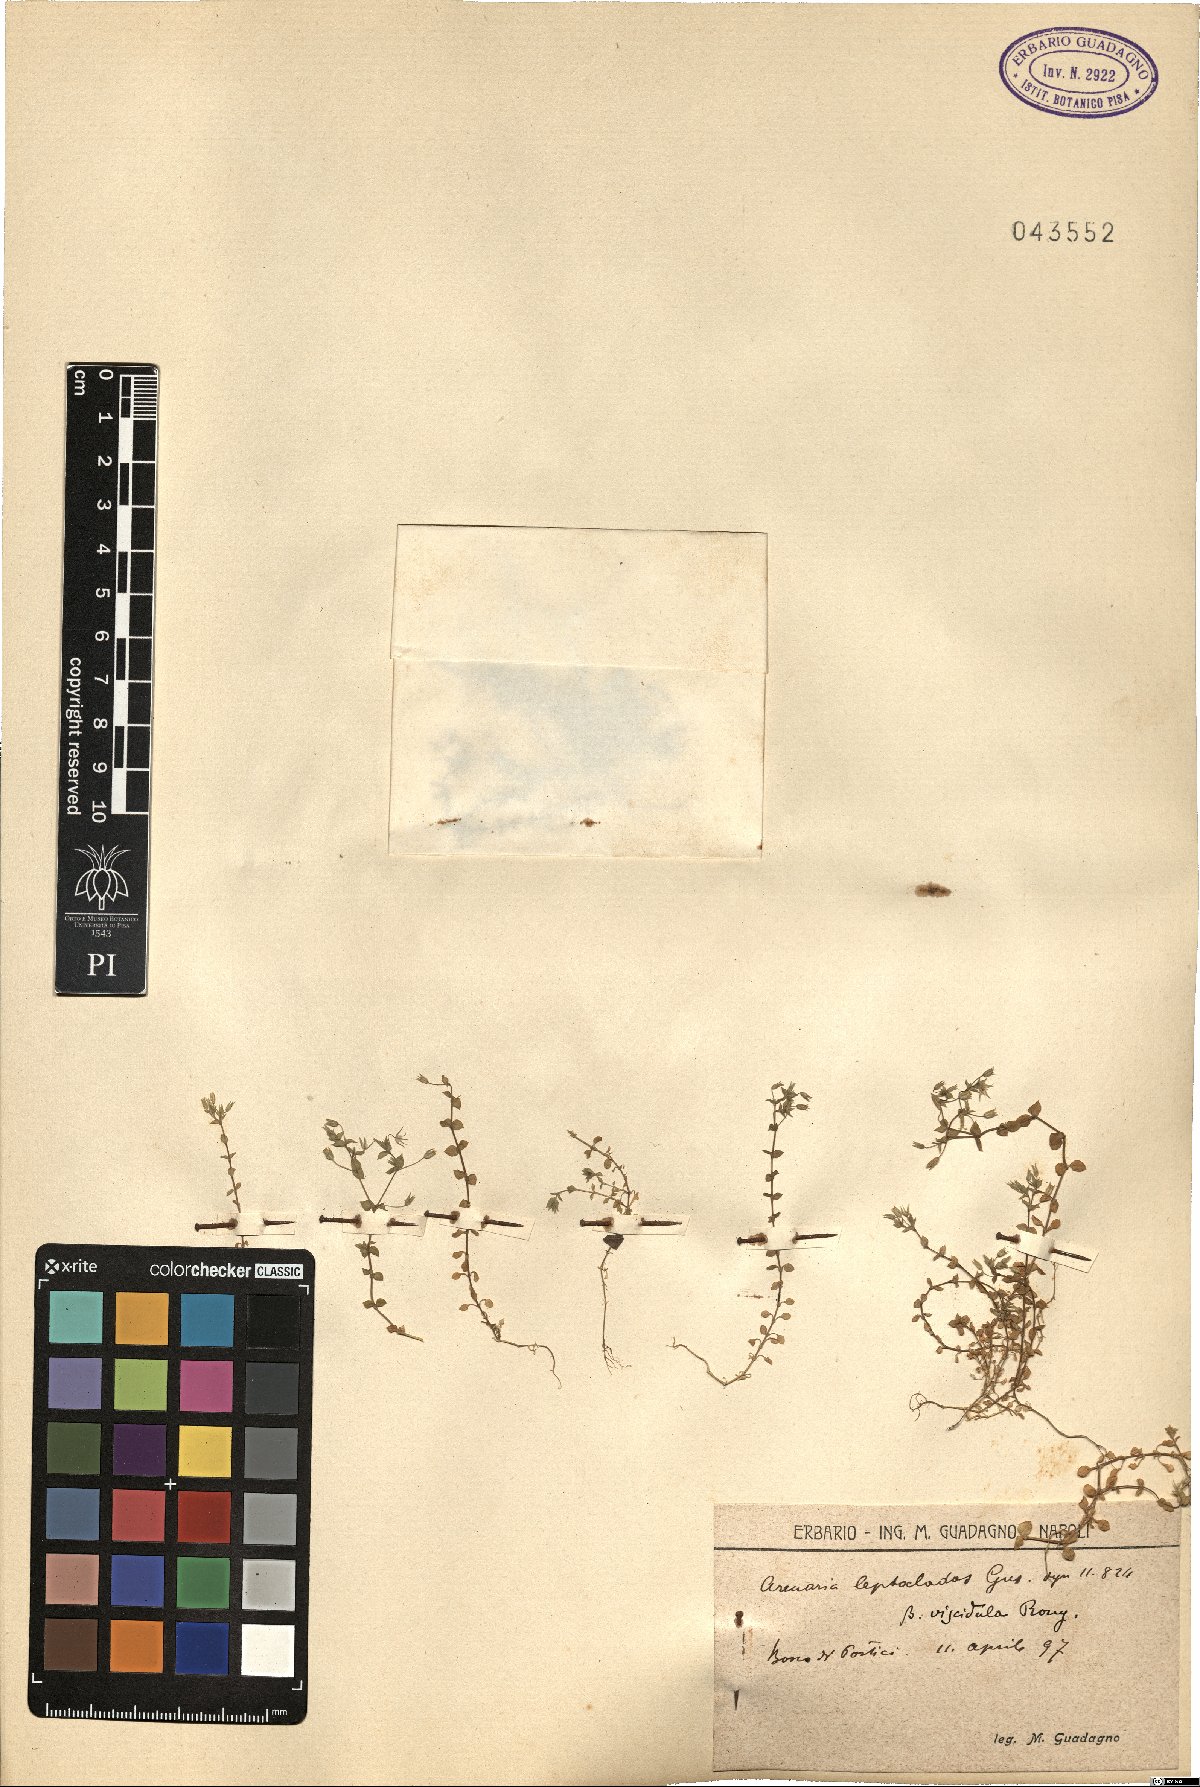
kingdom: Plantae
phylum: Tracheophyta
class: Magnoliopsida
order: Caryophyllales
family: Caryophyllaceae
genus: Arenaria
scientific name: Arenaria leptoclados
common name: Thyme-leaved sandwort
